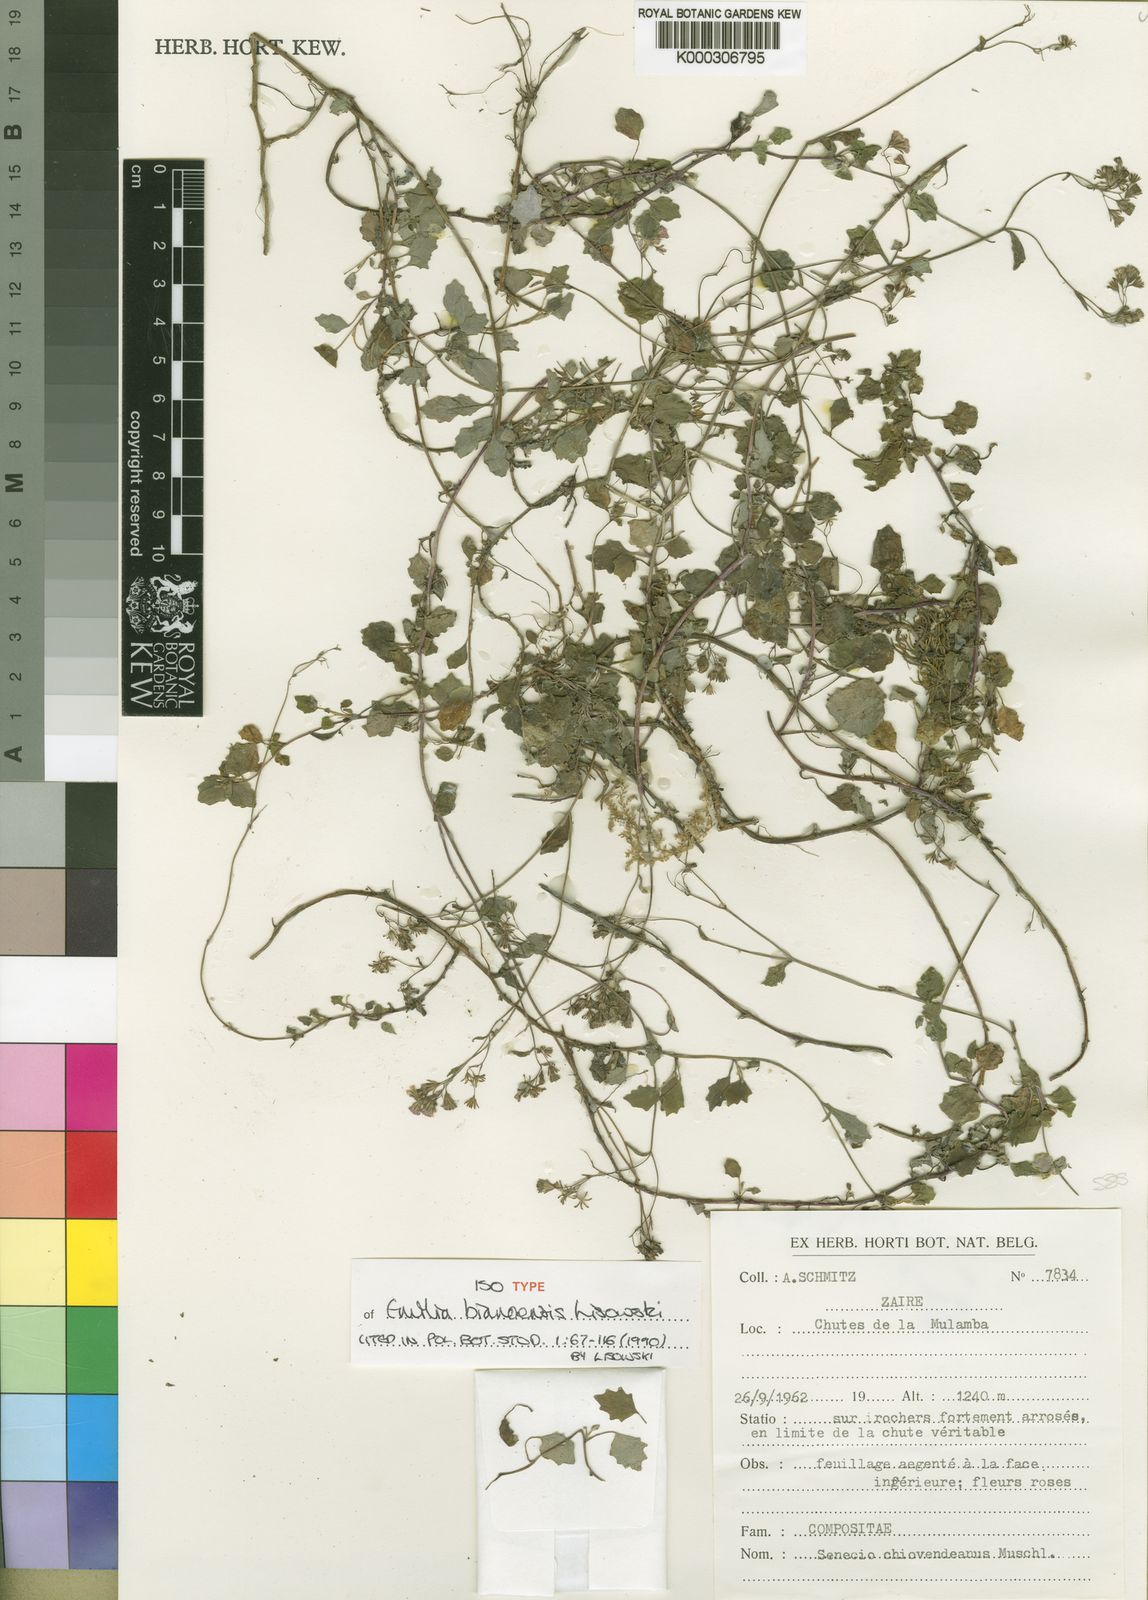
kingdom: Plantae
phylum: Tracheophyta
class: Magnoliopsida
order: Asterales
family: Asteraceae
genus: Emilia
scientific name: Emilia bianoensis
